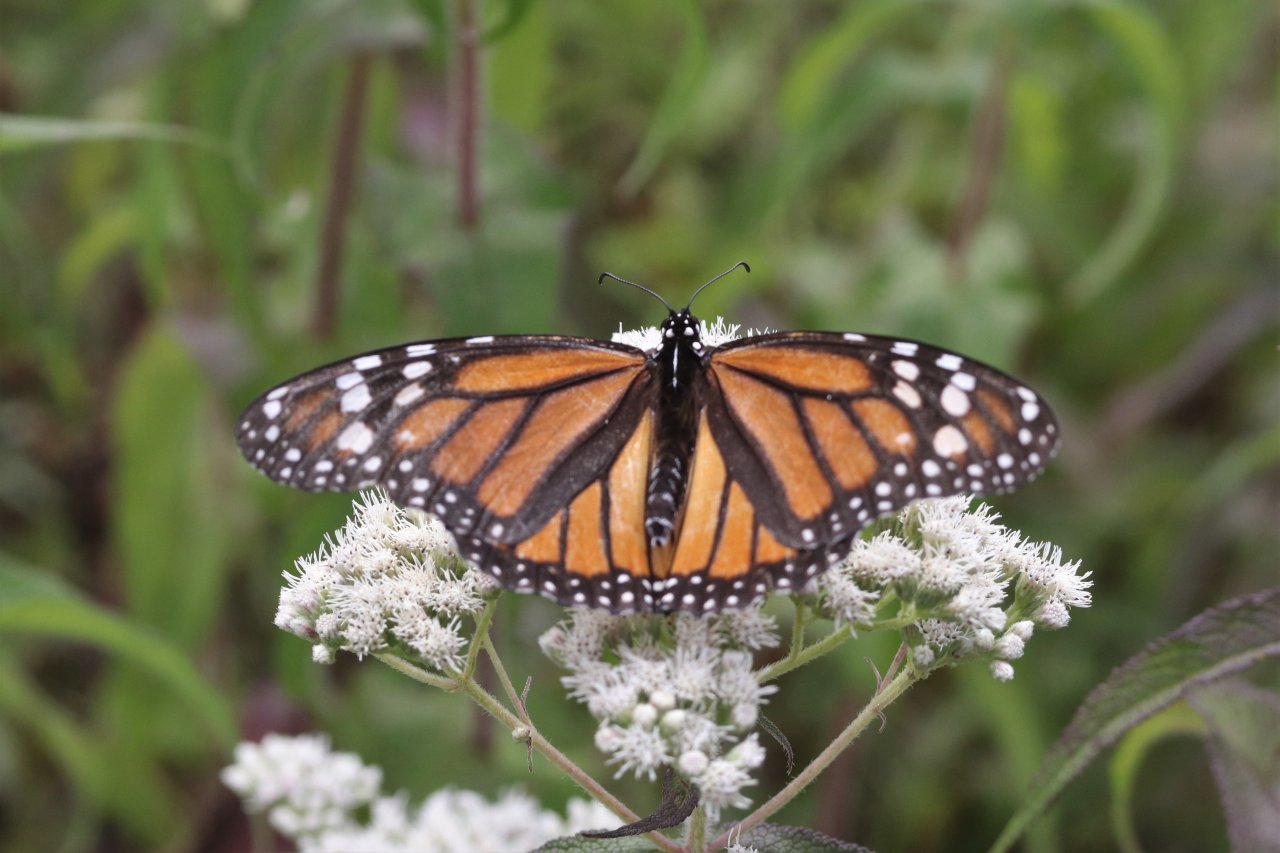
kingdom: Animalia
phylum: Arthropoda
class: Insecta
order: Lepidoptera
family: Nymphalidae
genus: Danaus
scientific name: Danaus plexippus
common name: Monarch
